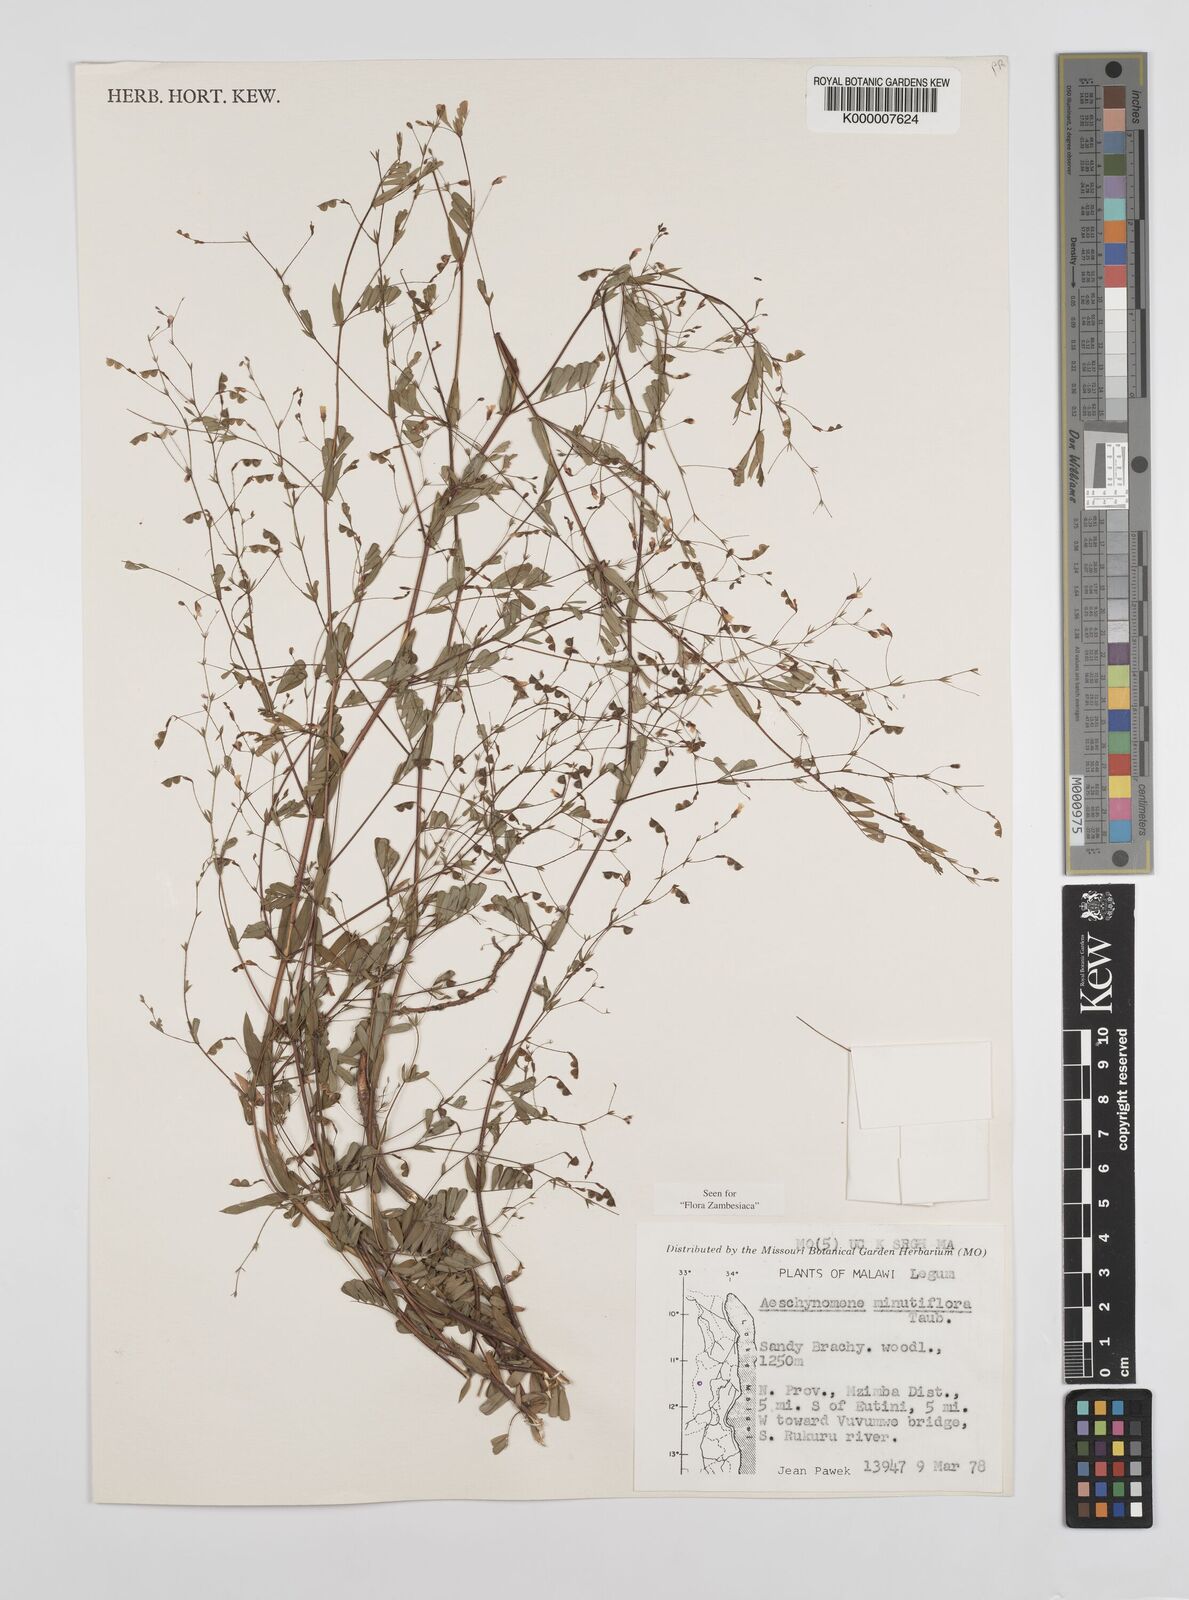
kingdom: Plantae
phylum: Tracheophyta
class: Magnoliopsida
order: Fabales
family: Fabaceae
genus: Aeschynomene
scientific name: Aeschynomene minutiflora
